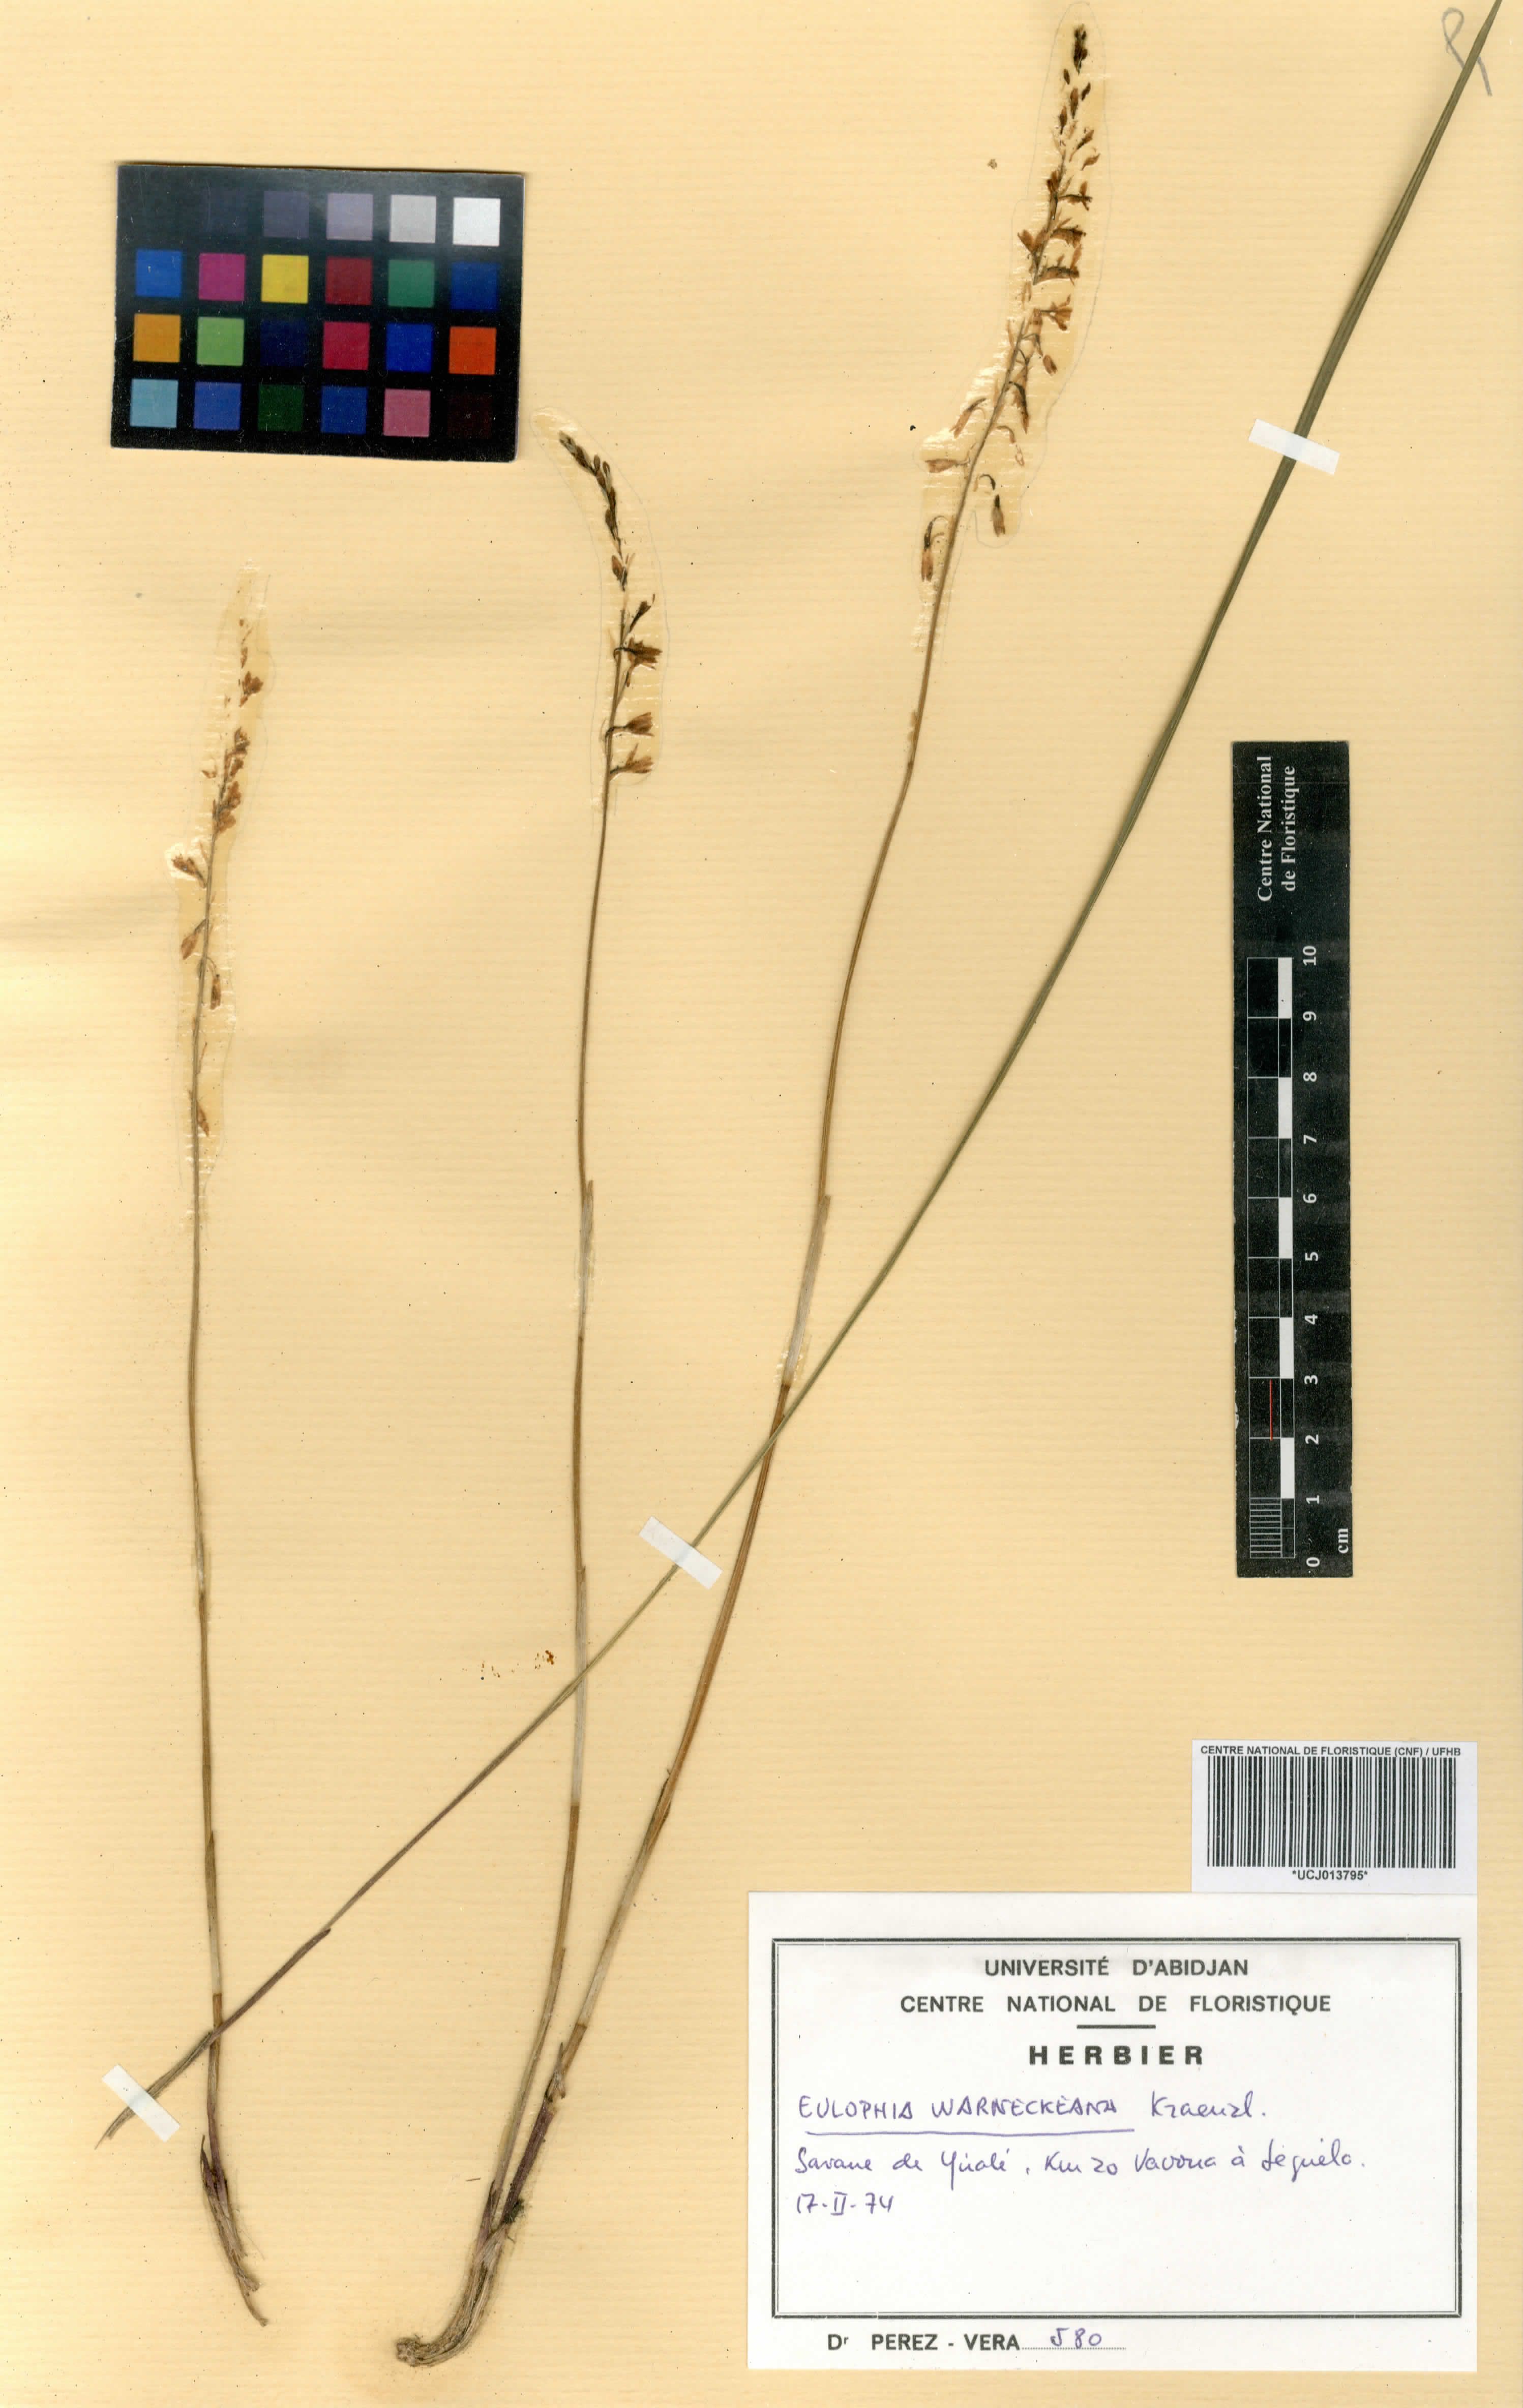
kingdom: Plantae
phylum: Tracheophyta
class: Liliopsida
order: Asparagales
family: Orchidaceae
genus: Eulophia
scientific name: Eulophia milnei
